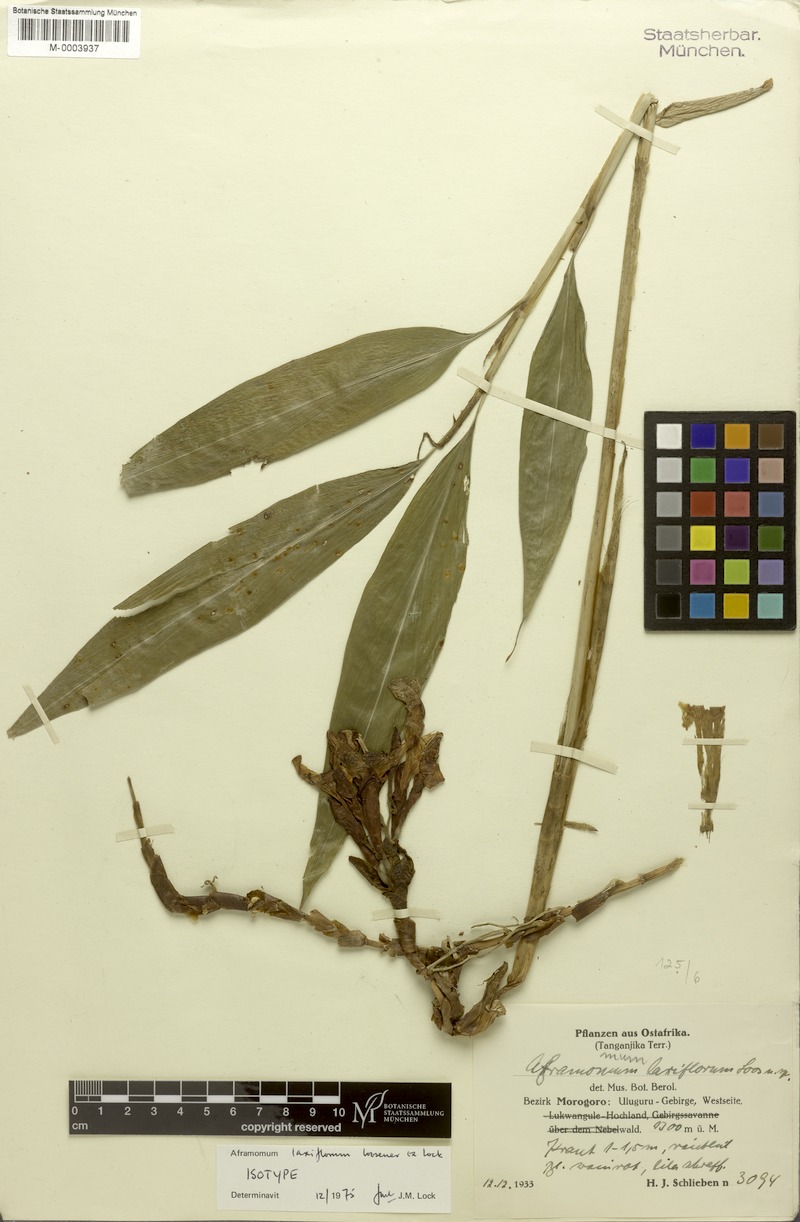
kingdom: Plantae
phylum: Tracheophyta
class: Liliopsida
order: Zingiberales
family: Zingiberaceae
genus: Aframomum
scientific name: Aframomum laxiflorum
